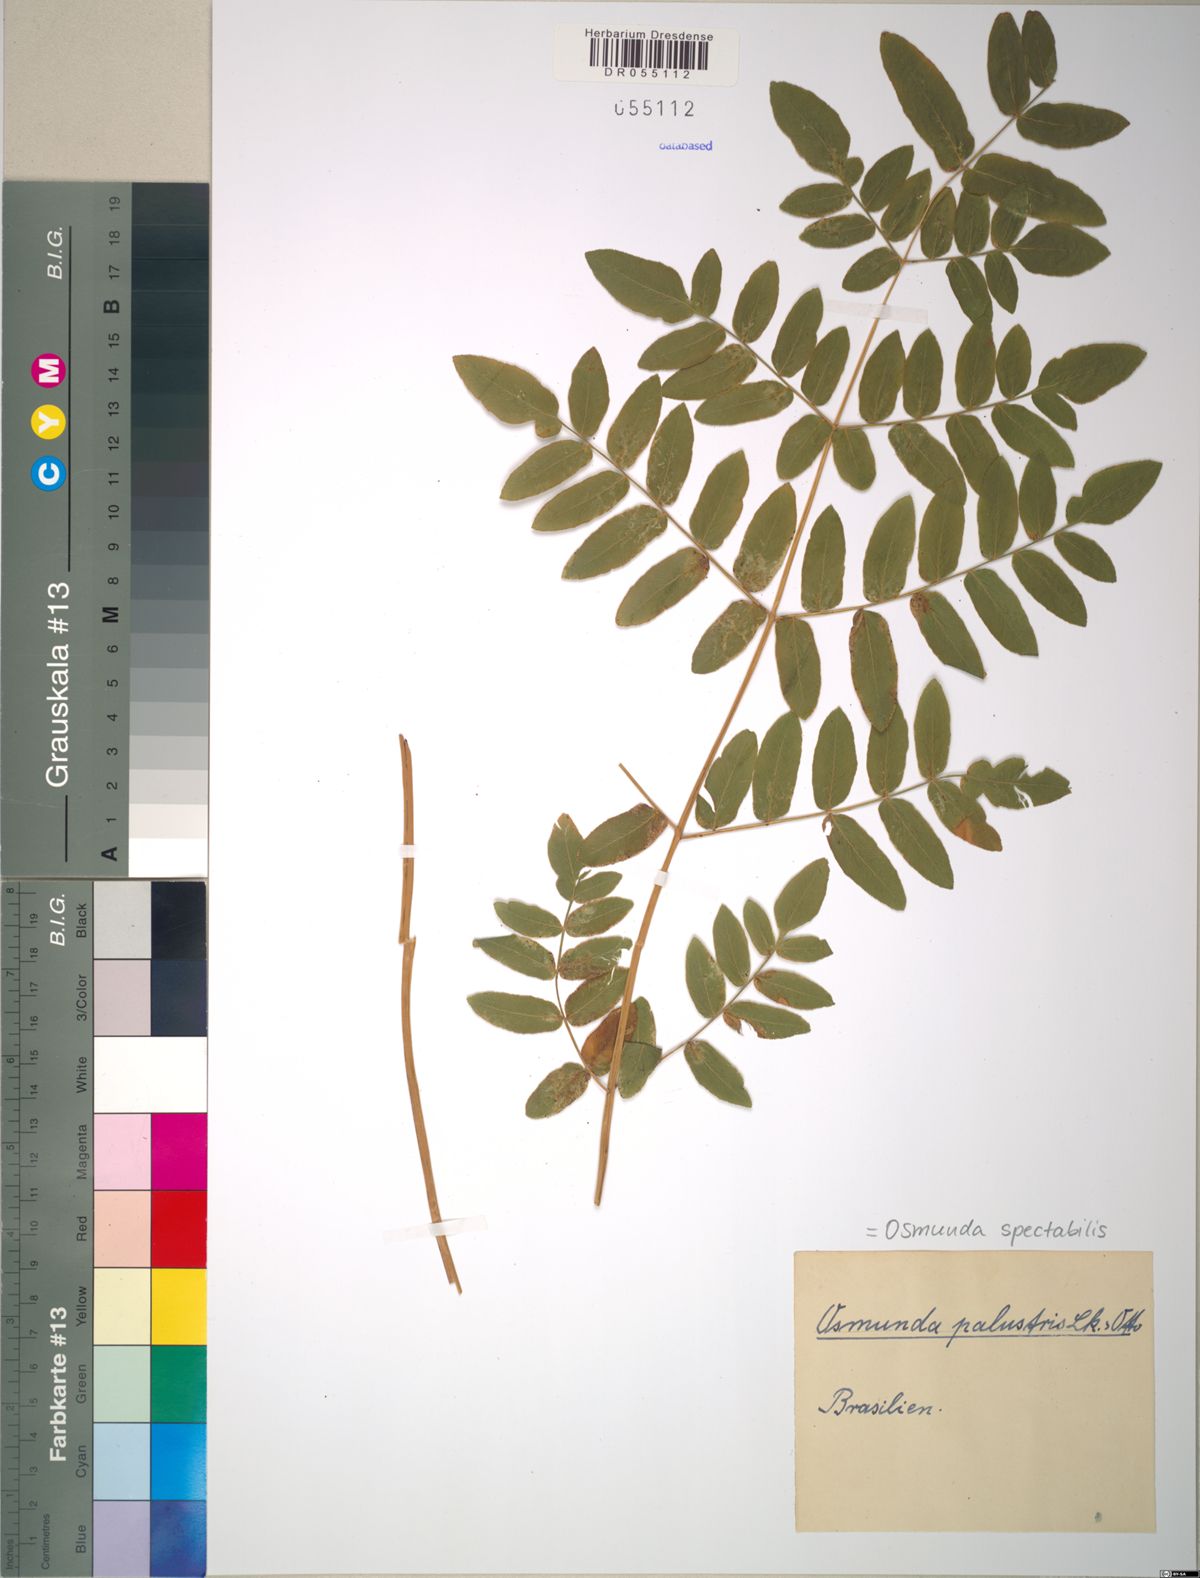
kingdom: Plantae
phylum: Tracheophyta
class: Polypodiopsida
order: Osmundales
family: Osmundaceae
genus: Osmunda
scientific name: Osmunda spectabilis
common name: American royal fern
